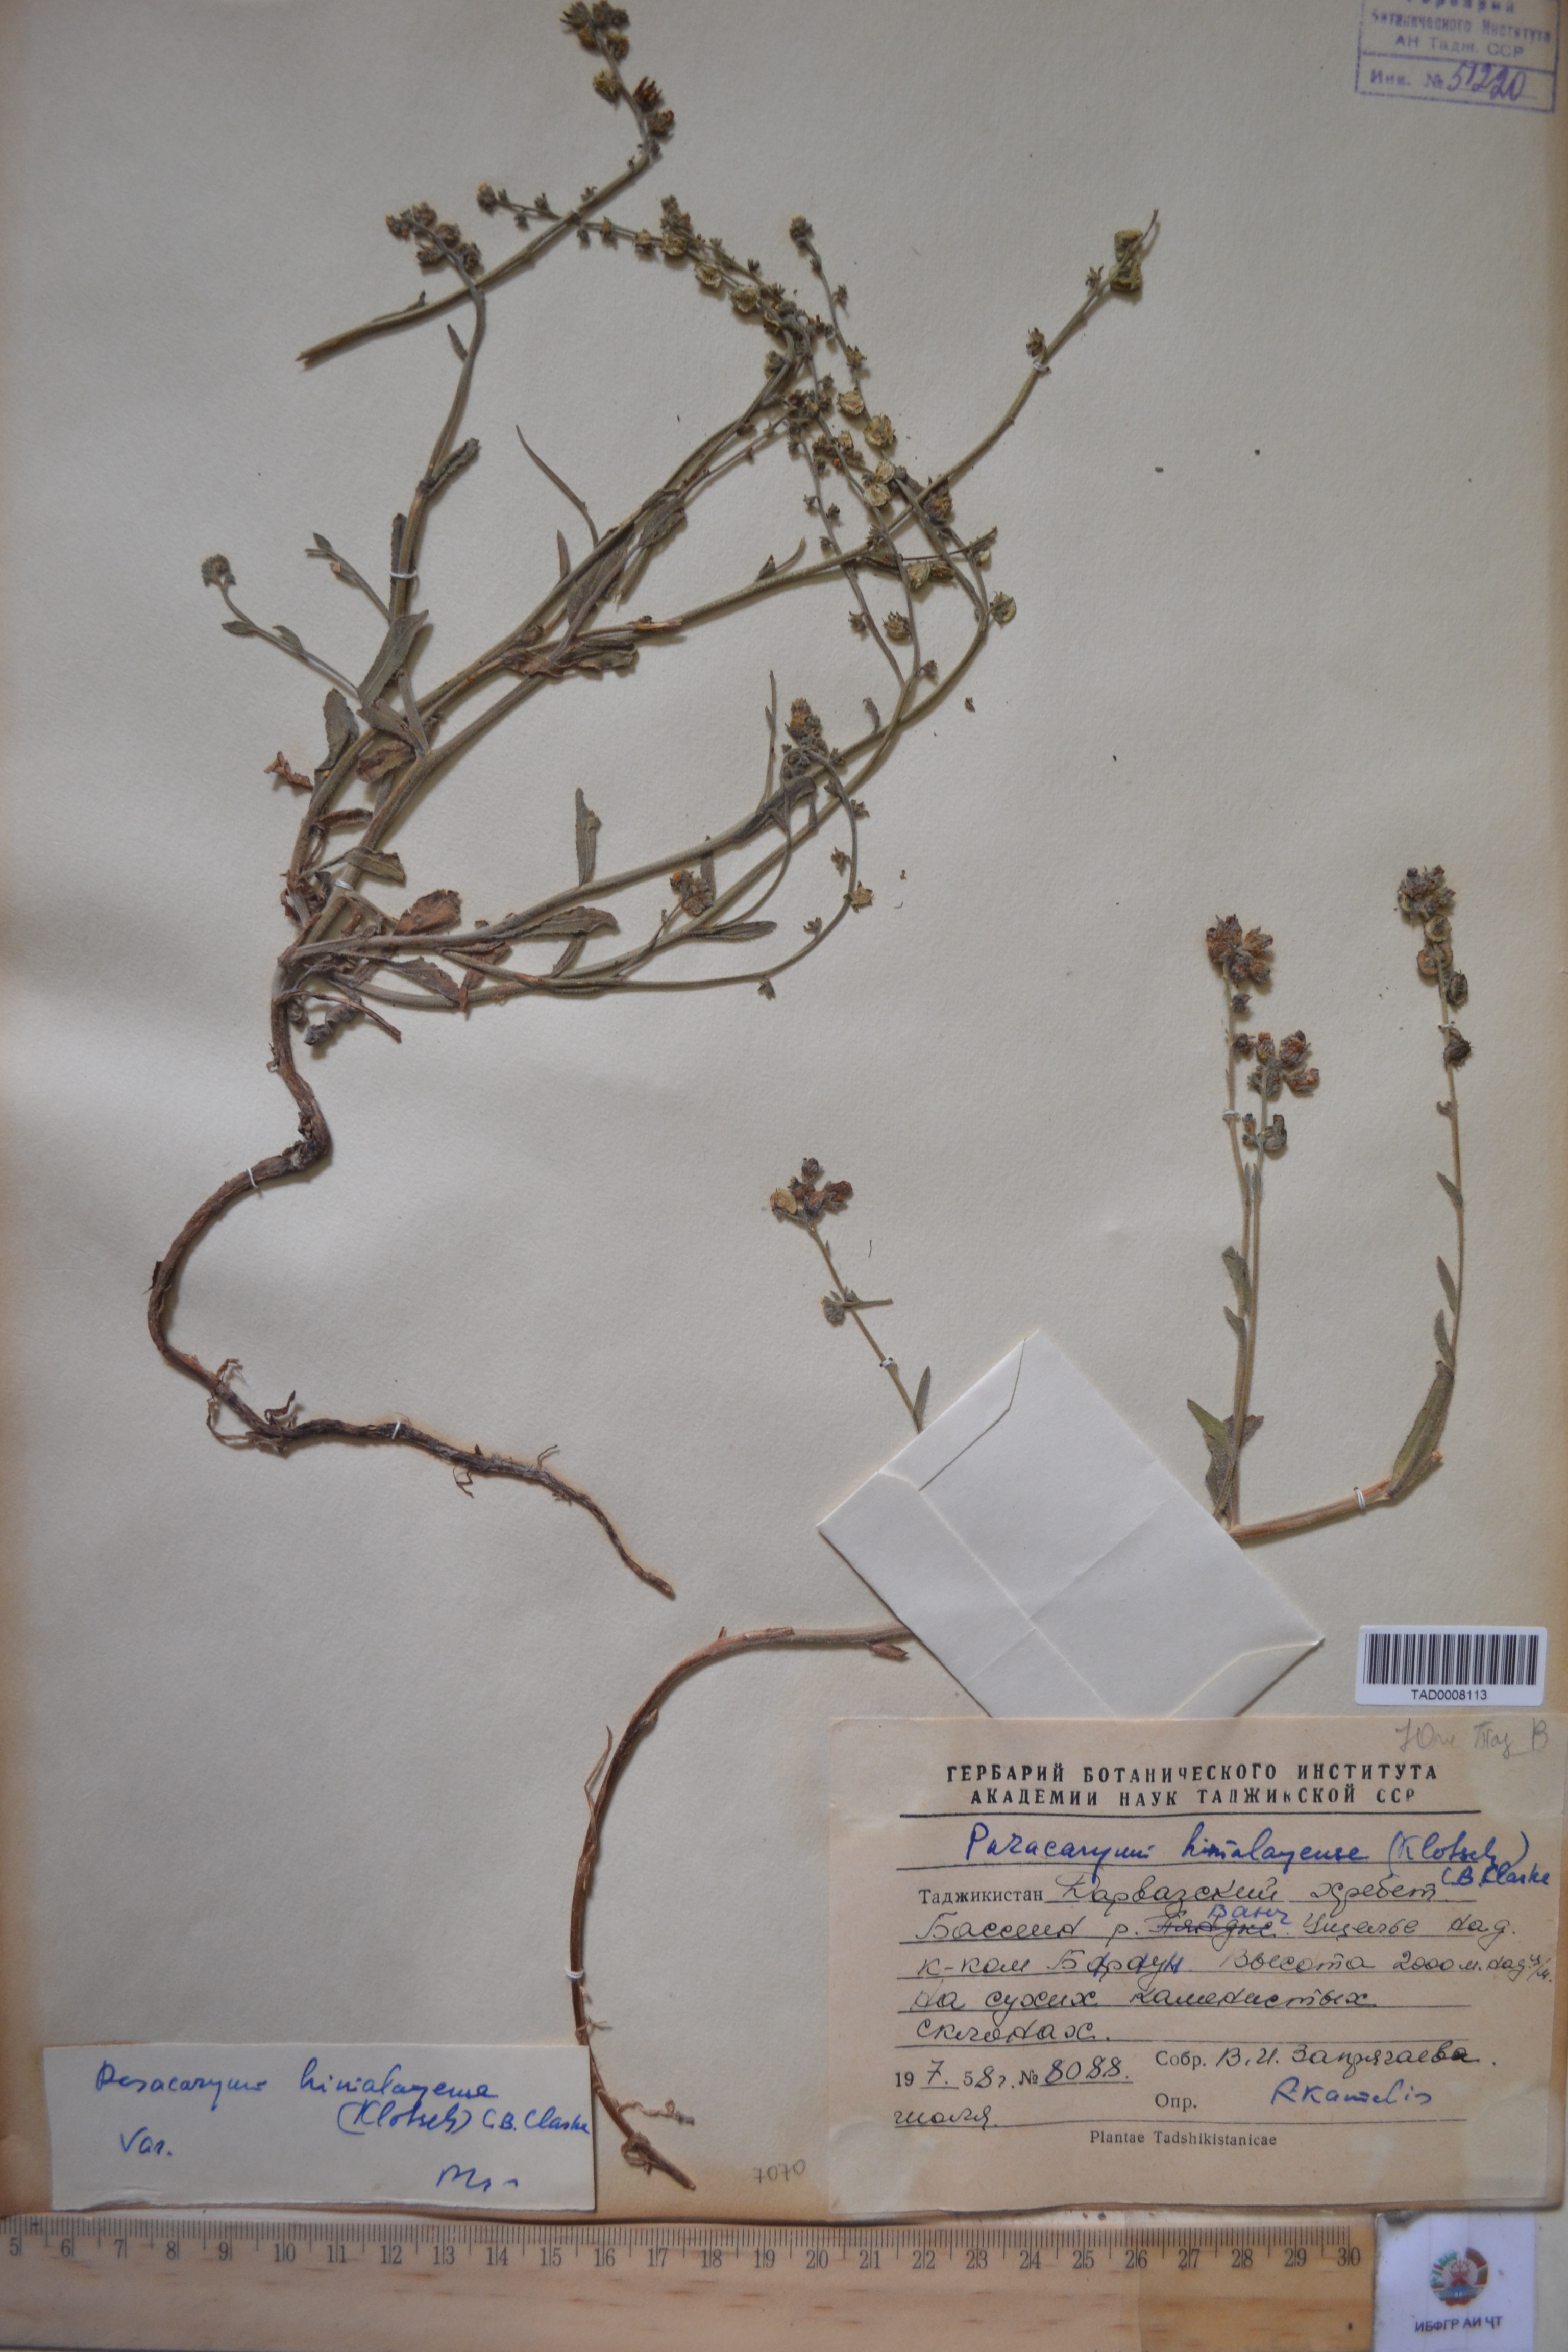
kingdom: Plantae
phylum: Tracheophyta
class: Magnoliopsida
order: Boraginales
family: Boraginaceae
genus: Paracaryum
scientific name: Paracaryum himalayense
